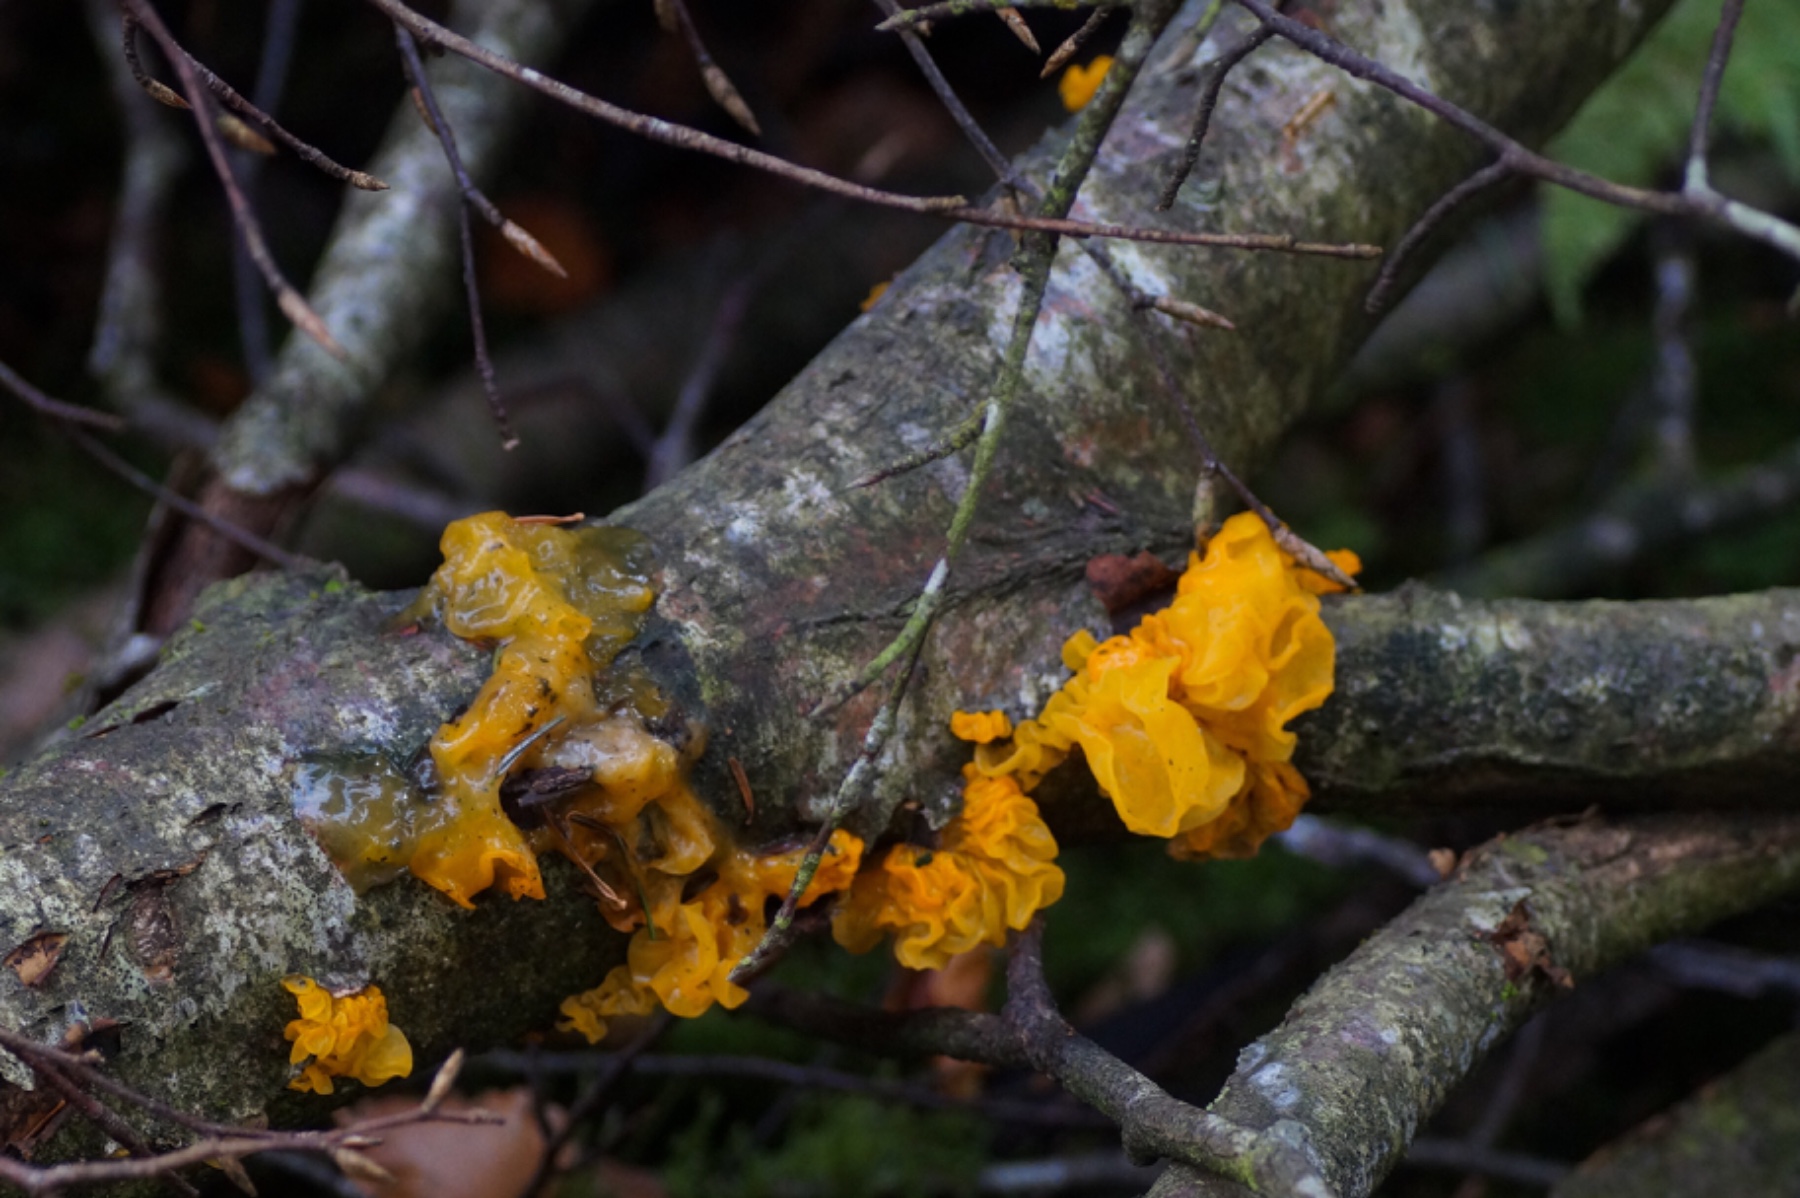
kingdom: Fungi
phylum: Basidiomycota
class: Tremellomycetes
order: Tremellales
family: Tremellaceae
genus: Tremella
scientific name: Tremella mesenterica
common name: gul bævresvamp
